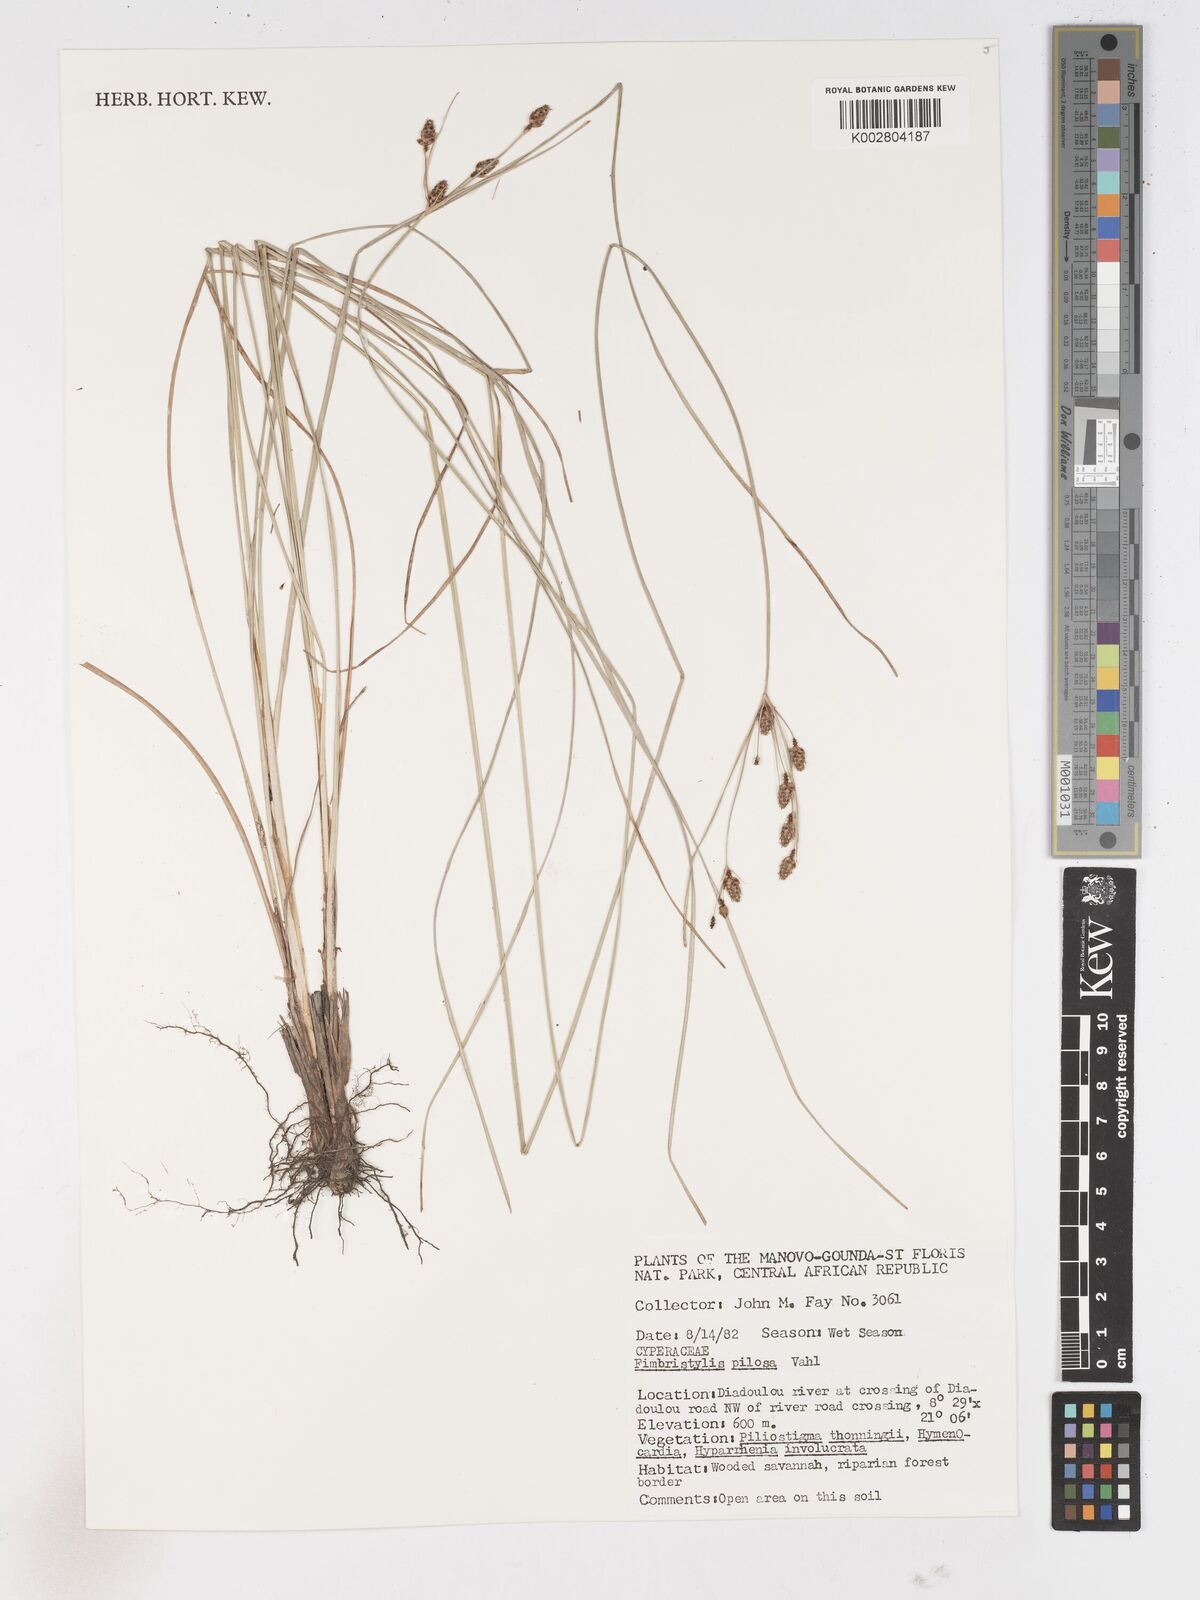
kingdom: Plantae
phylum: Tracheophyta
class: Liliopsida
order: Poales
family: Cyperaceae
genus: Fimbristylis
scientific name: Fimbristylis pilosa
